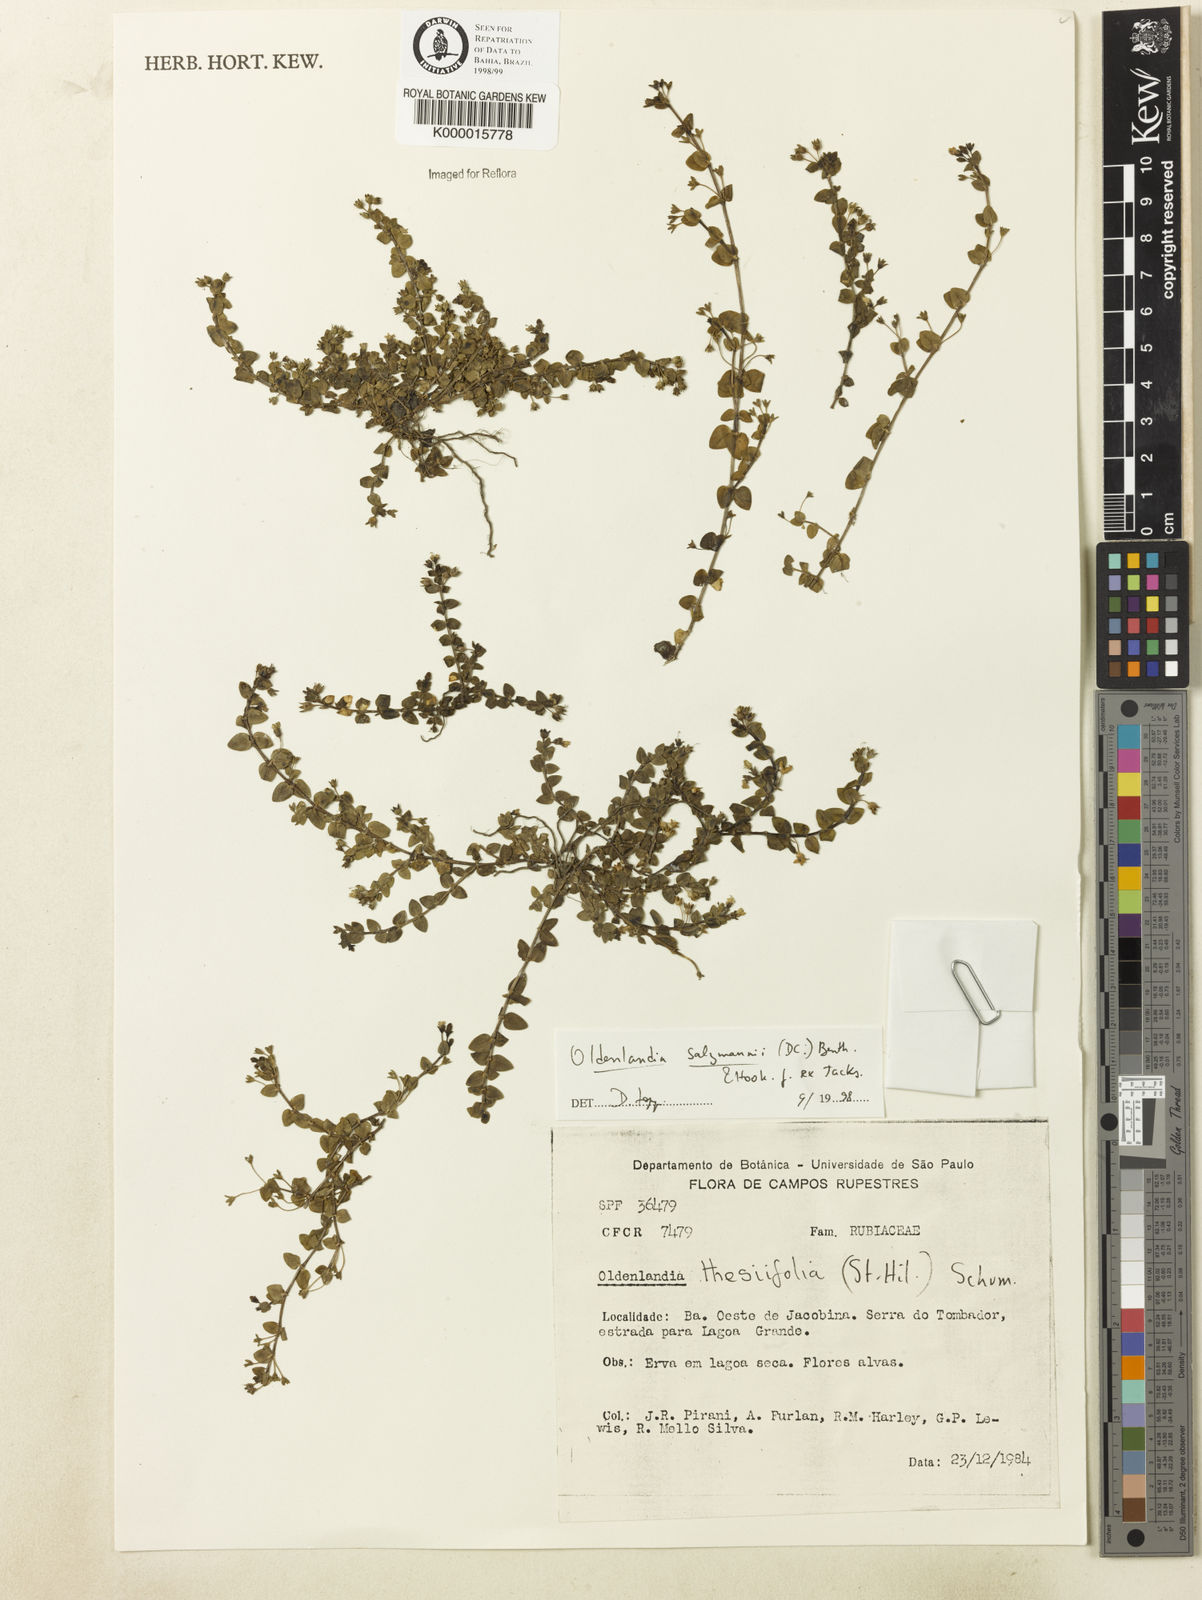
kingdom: Plantae
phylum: Tracheophyta
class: Magnoliopsida
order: Gentianales
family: Rubiaceae
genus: Oldenlandia
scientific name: Oldenlandia salzmannii
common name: Salzmann's mille graines
